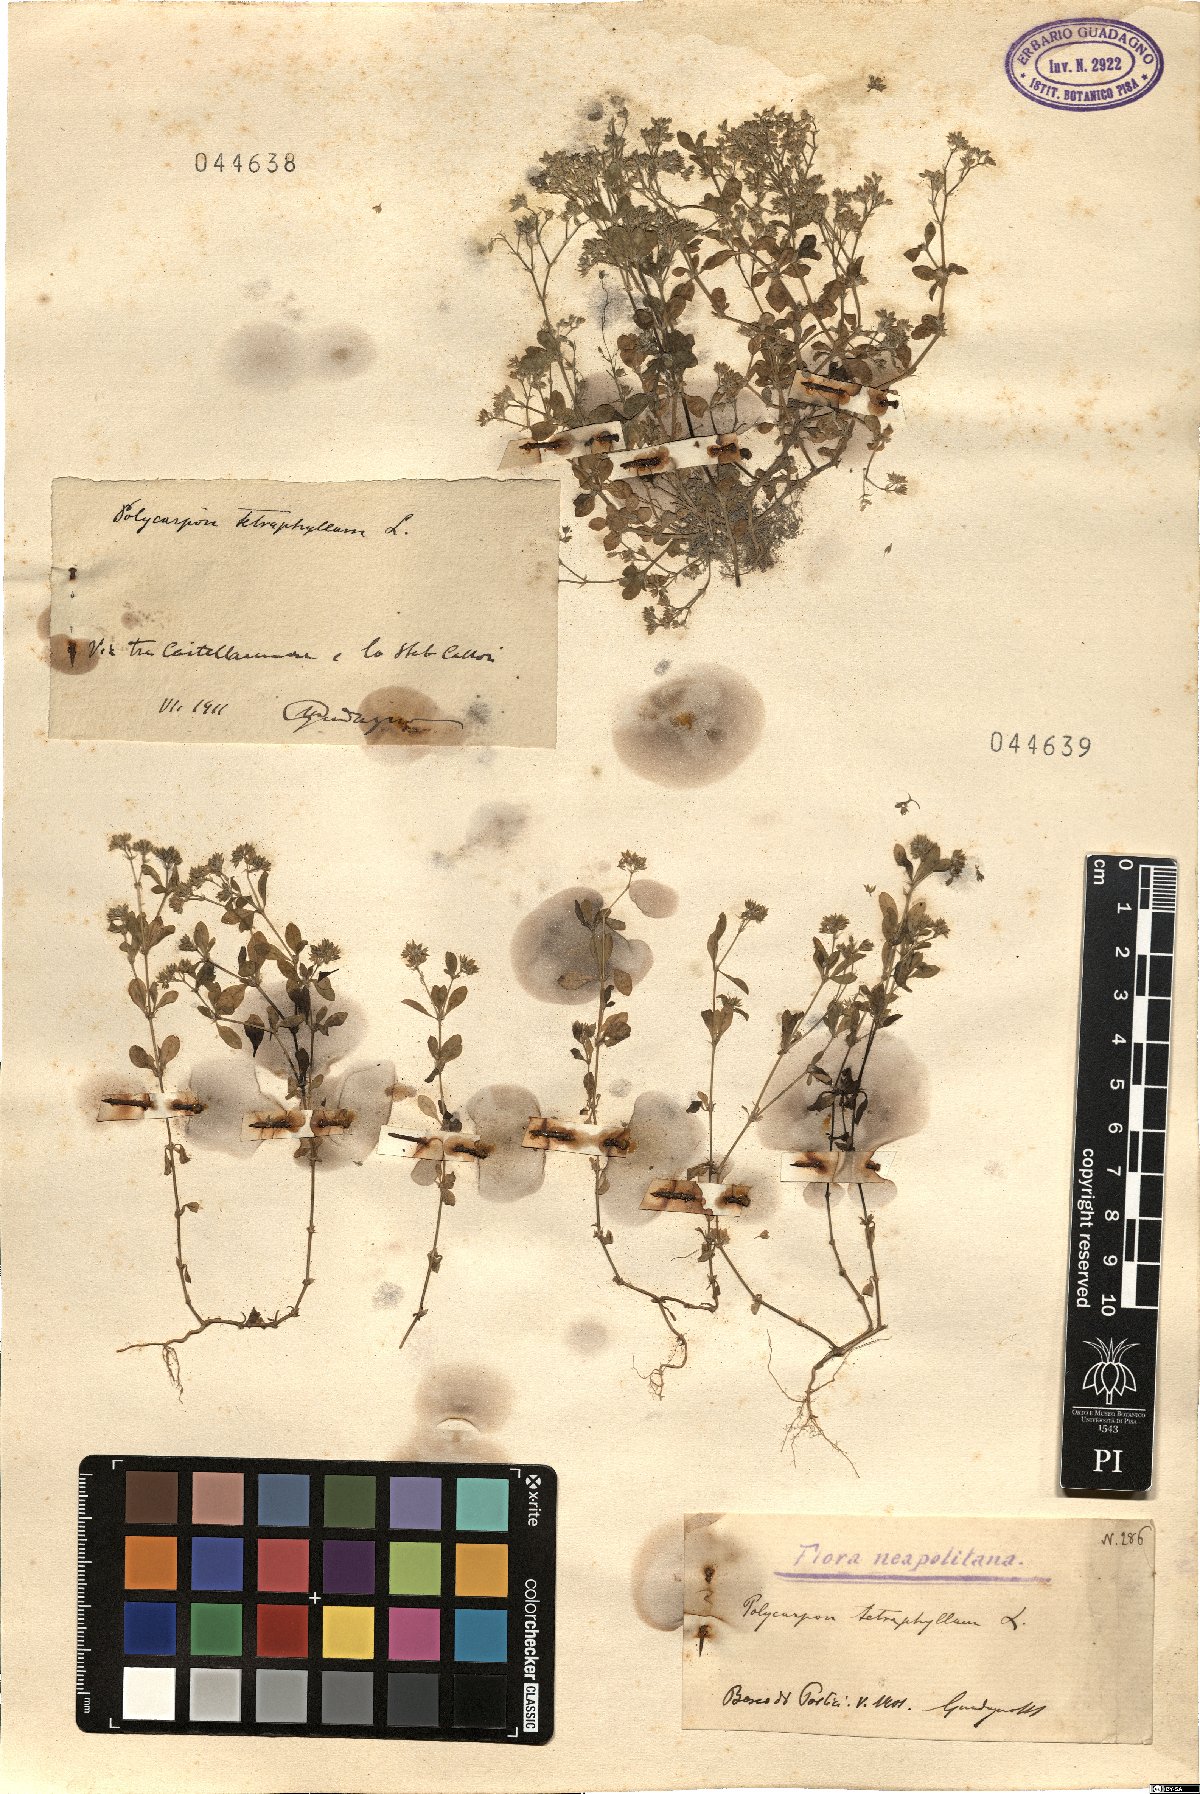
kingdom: Plantae
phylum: Tracheophyta
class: Magnoliopsida
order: Caryophyllales
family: Caryophyllaceae
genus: Polycarpon
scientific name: Polycarpon tetraphyllum
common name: Four-leaved all-seed
